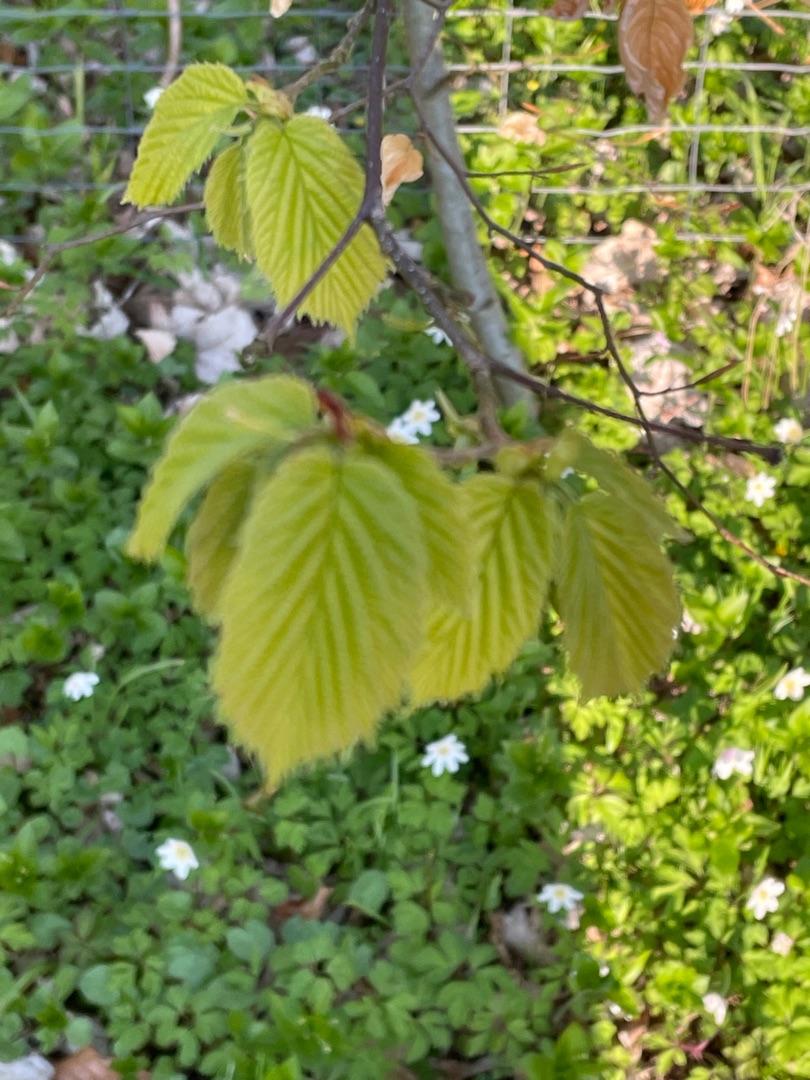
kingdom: Plantae
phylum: Tracheophyta
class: Magnoliopsida
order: Fagales
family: Betulaceae
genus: Corylus
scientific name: Corylus avellana
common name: Hassel
